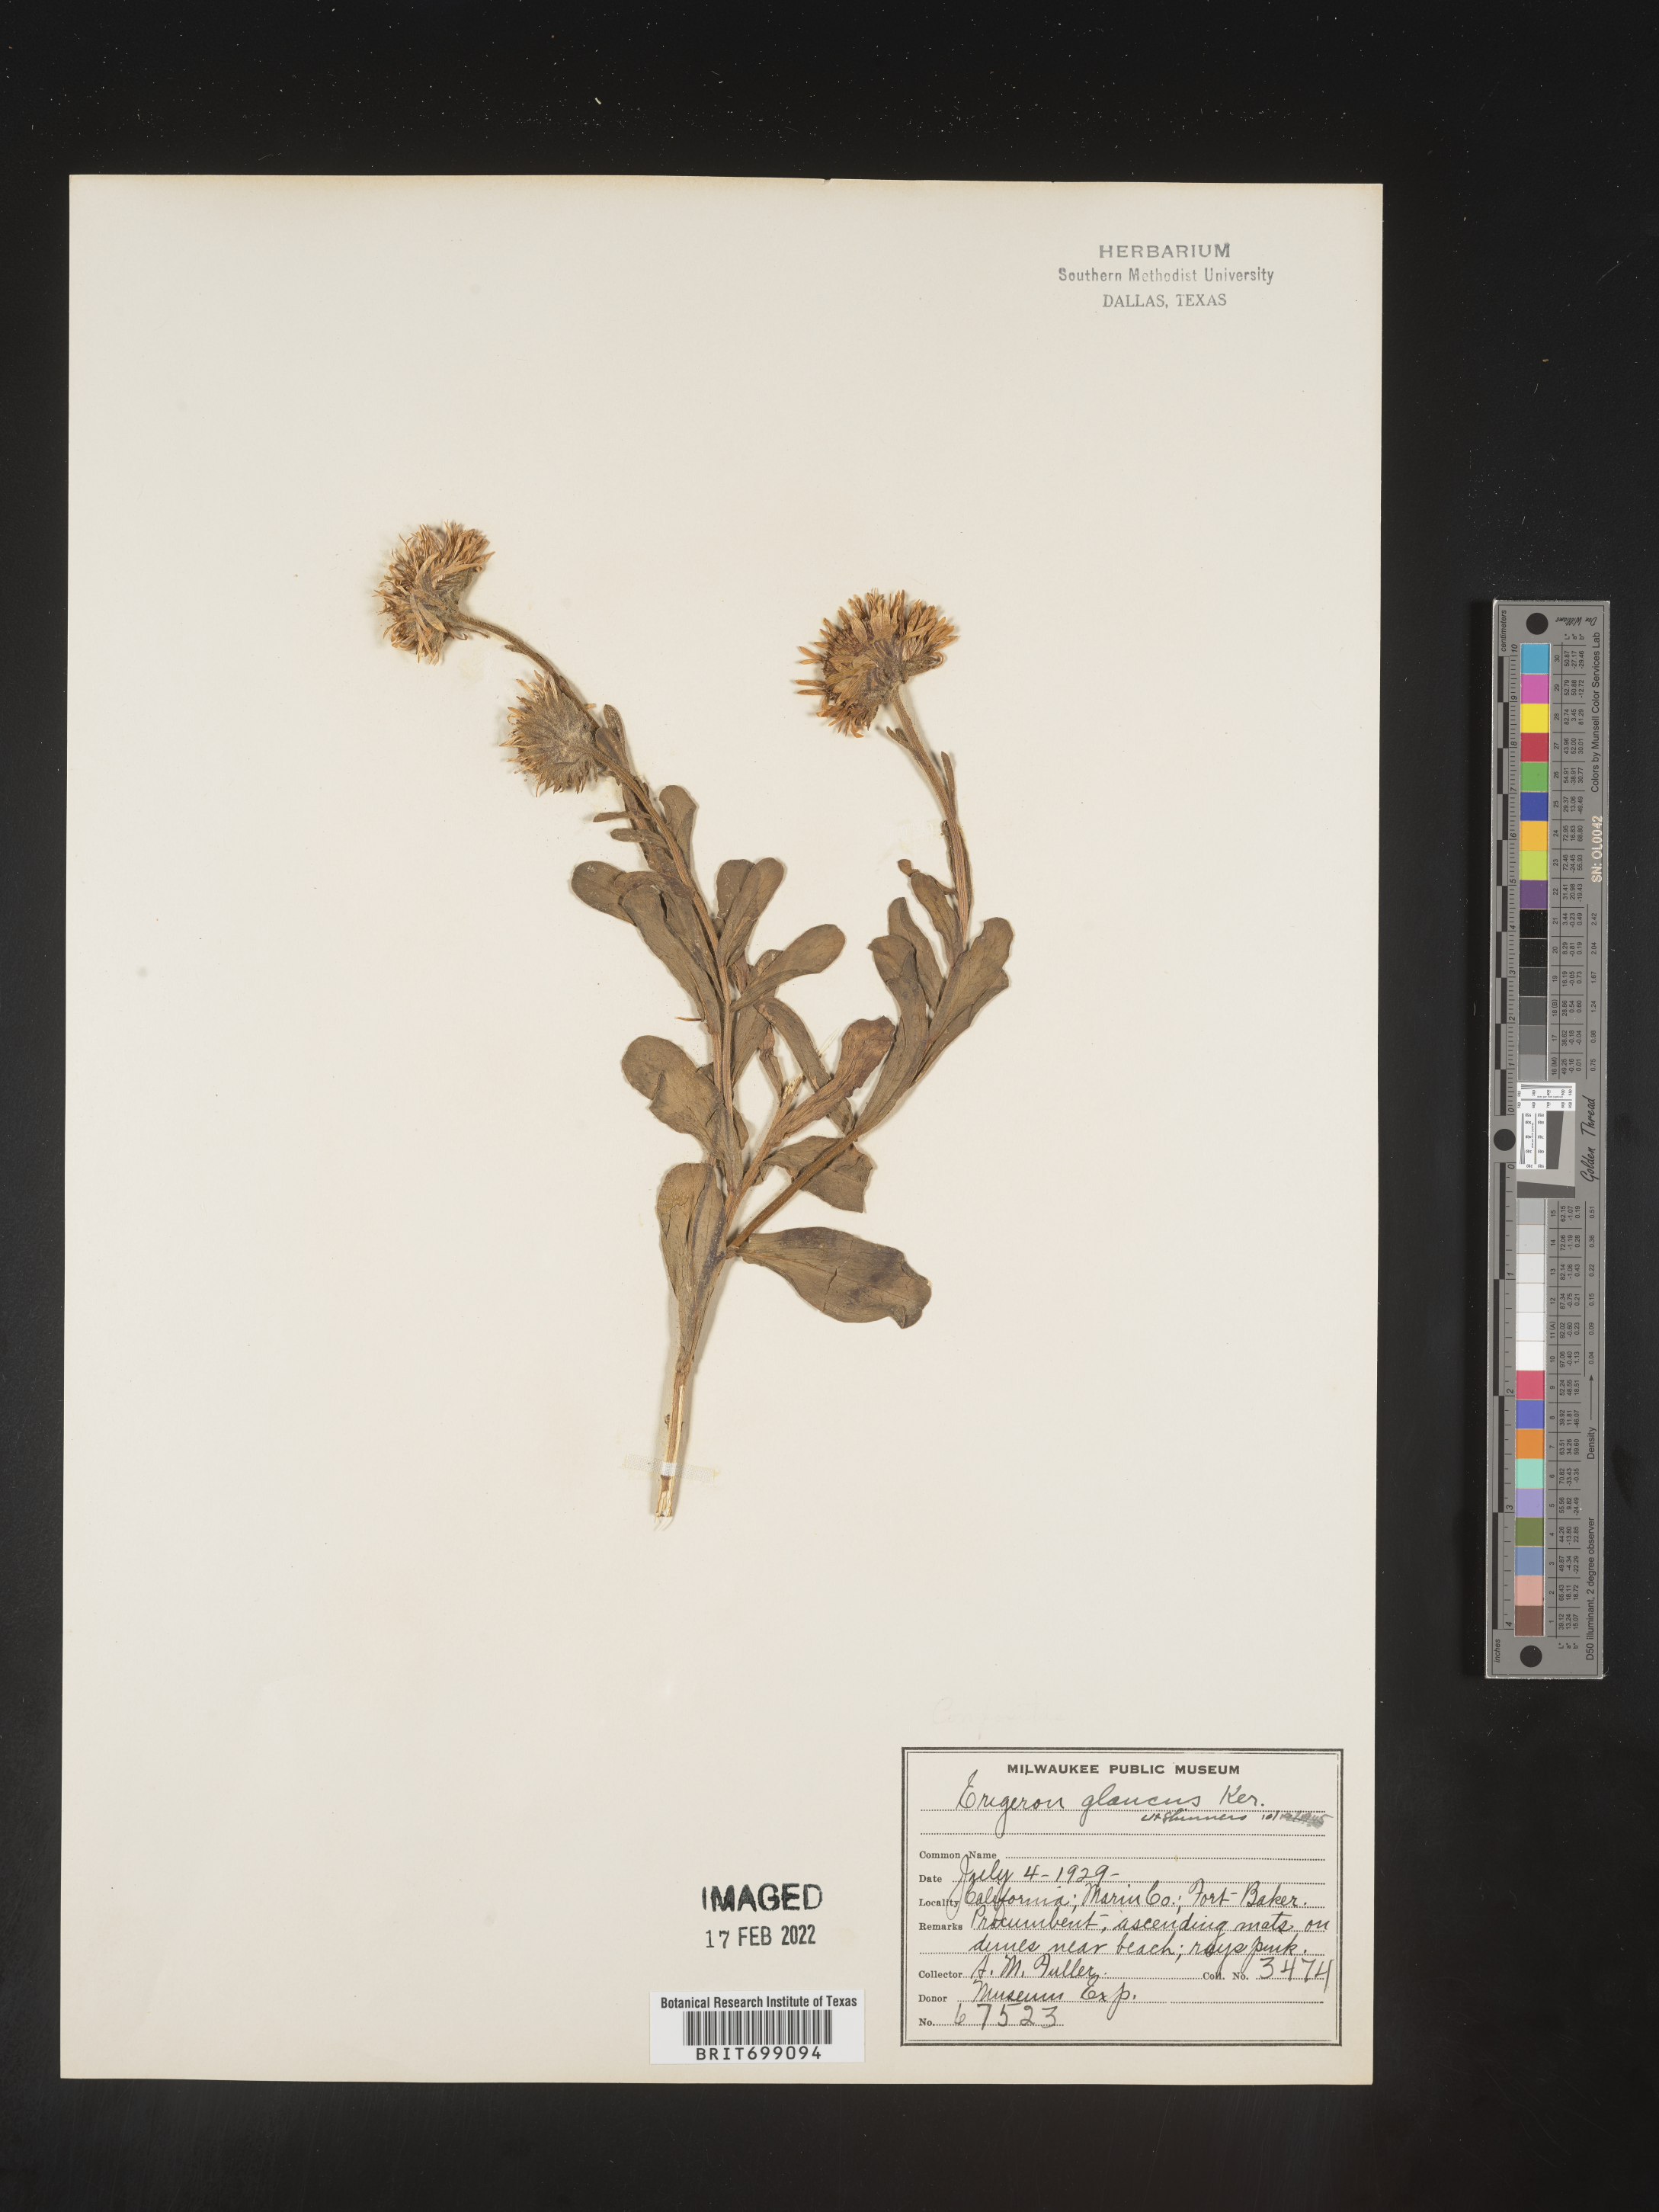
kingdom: Plantae
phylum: Tracheophyta
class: Magnoliopsida
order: Asterales
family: Asteraceae
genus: Erigeron
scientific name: Erigeron glaucus
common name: Seaside daisy
